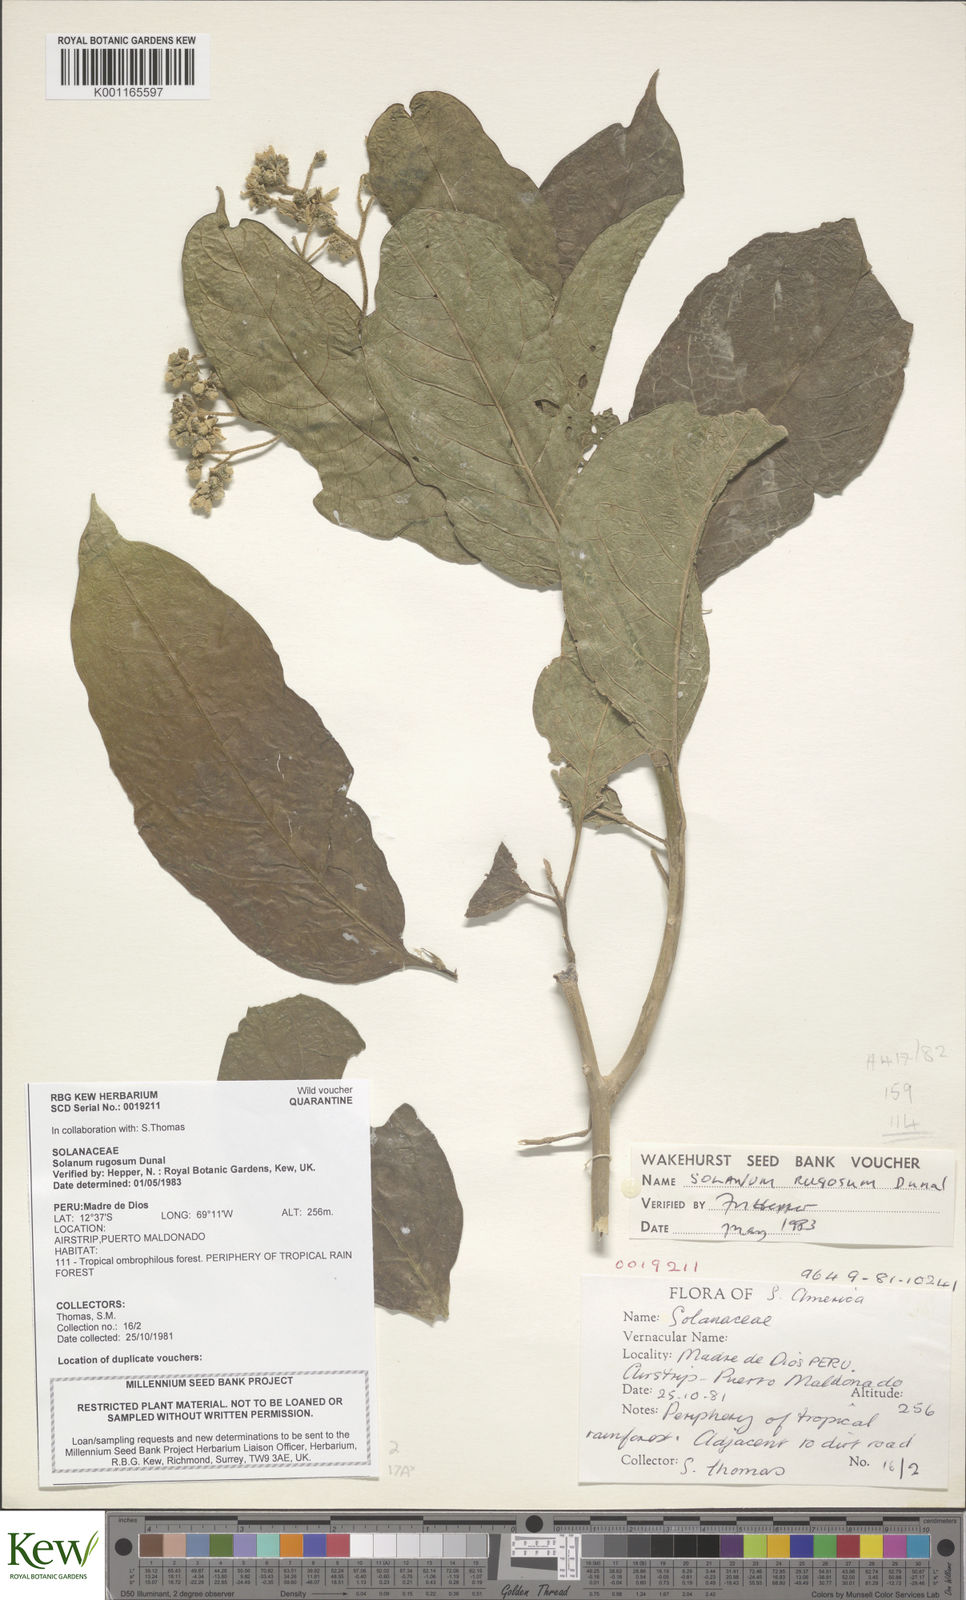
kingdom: Plantae
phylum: Tracheophyta
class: Magnoliopsida
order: Solanales
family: Solanaceae
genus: Solanum
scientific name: Solanum rugosum
